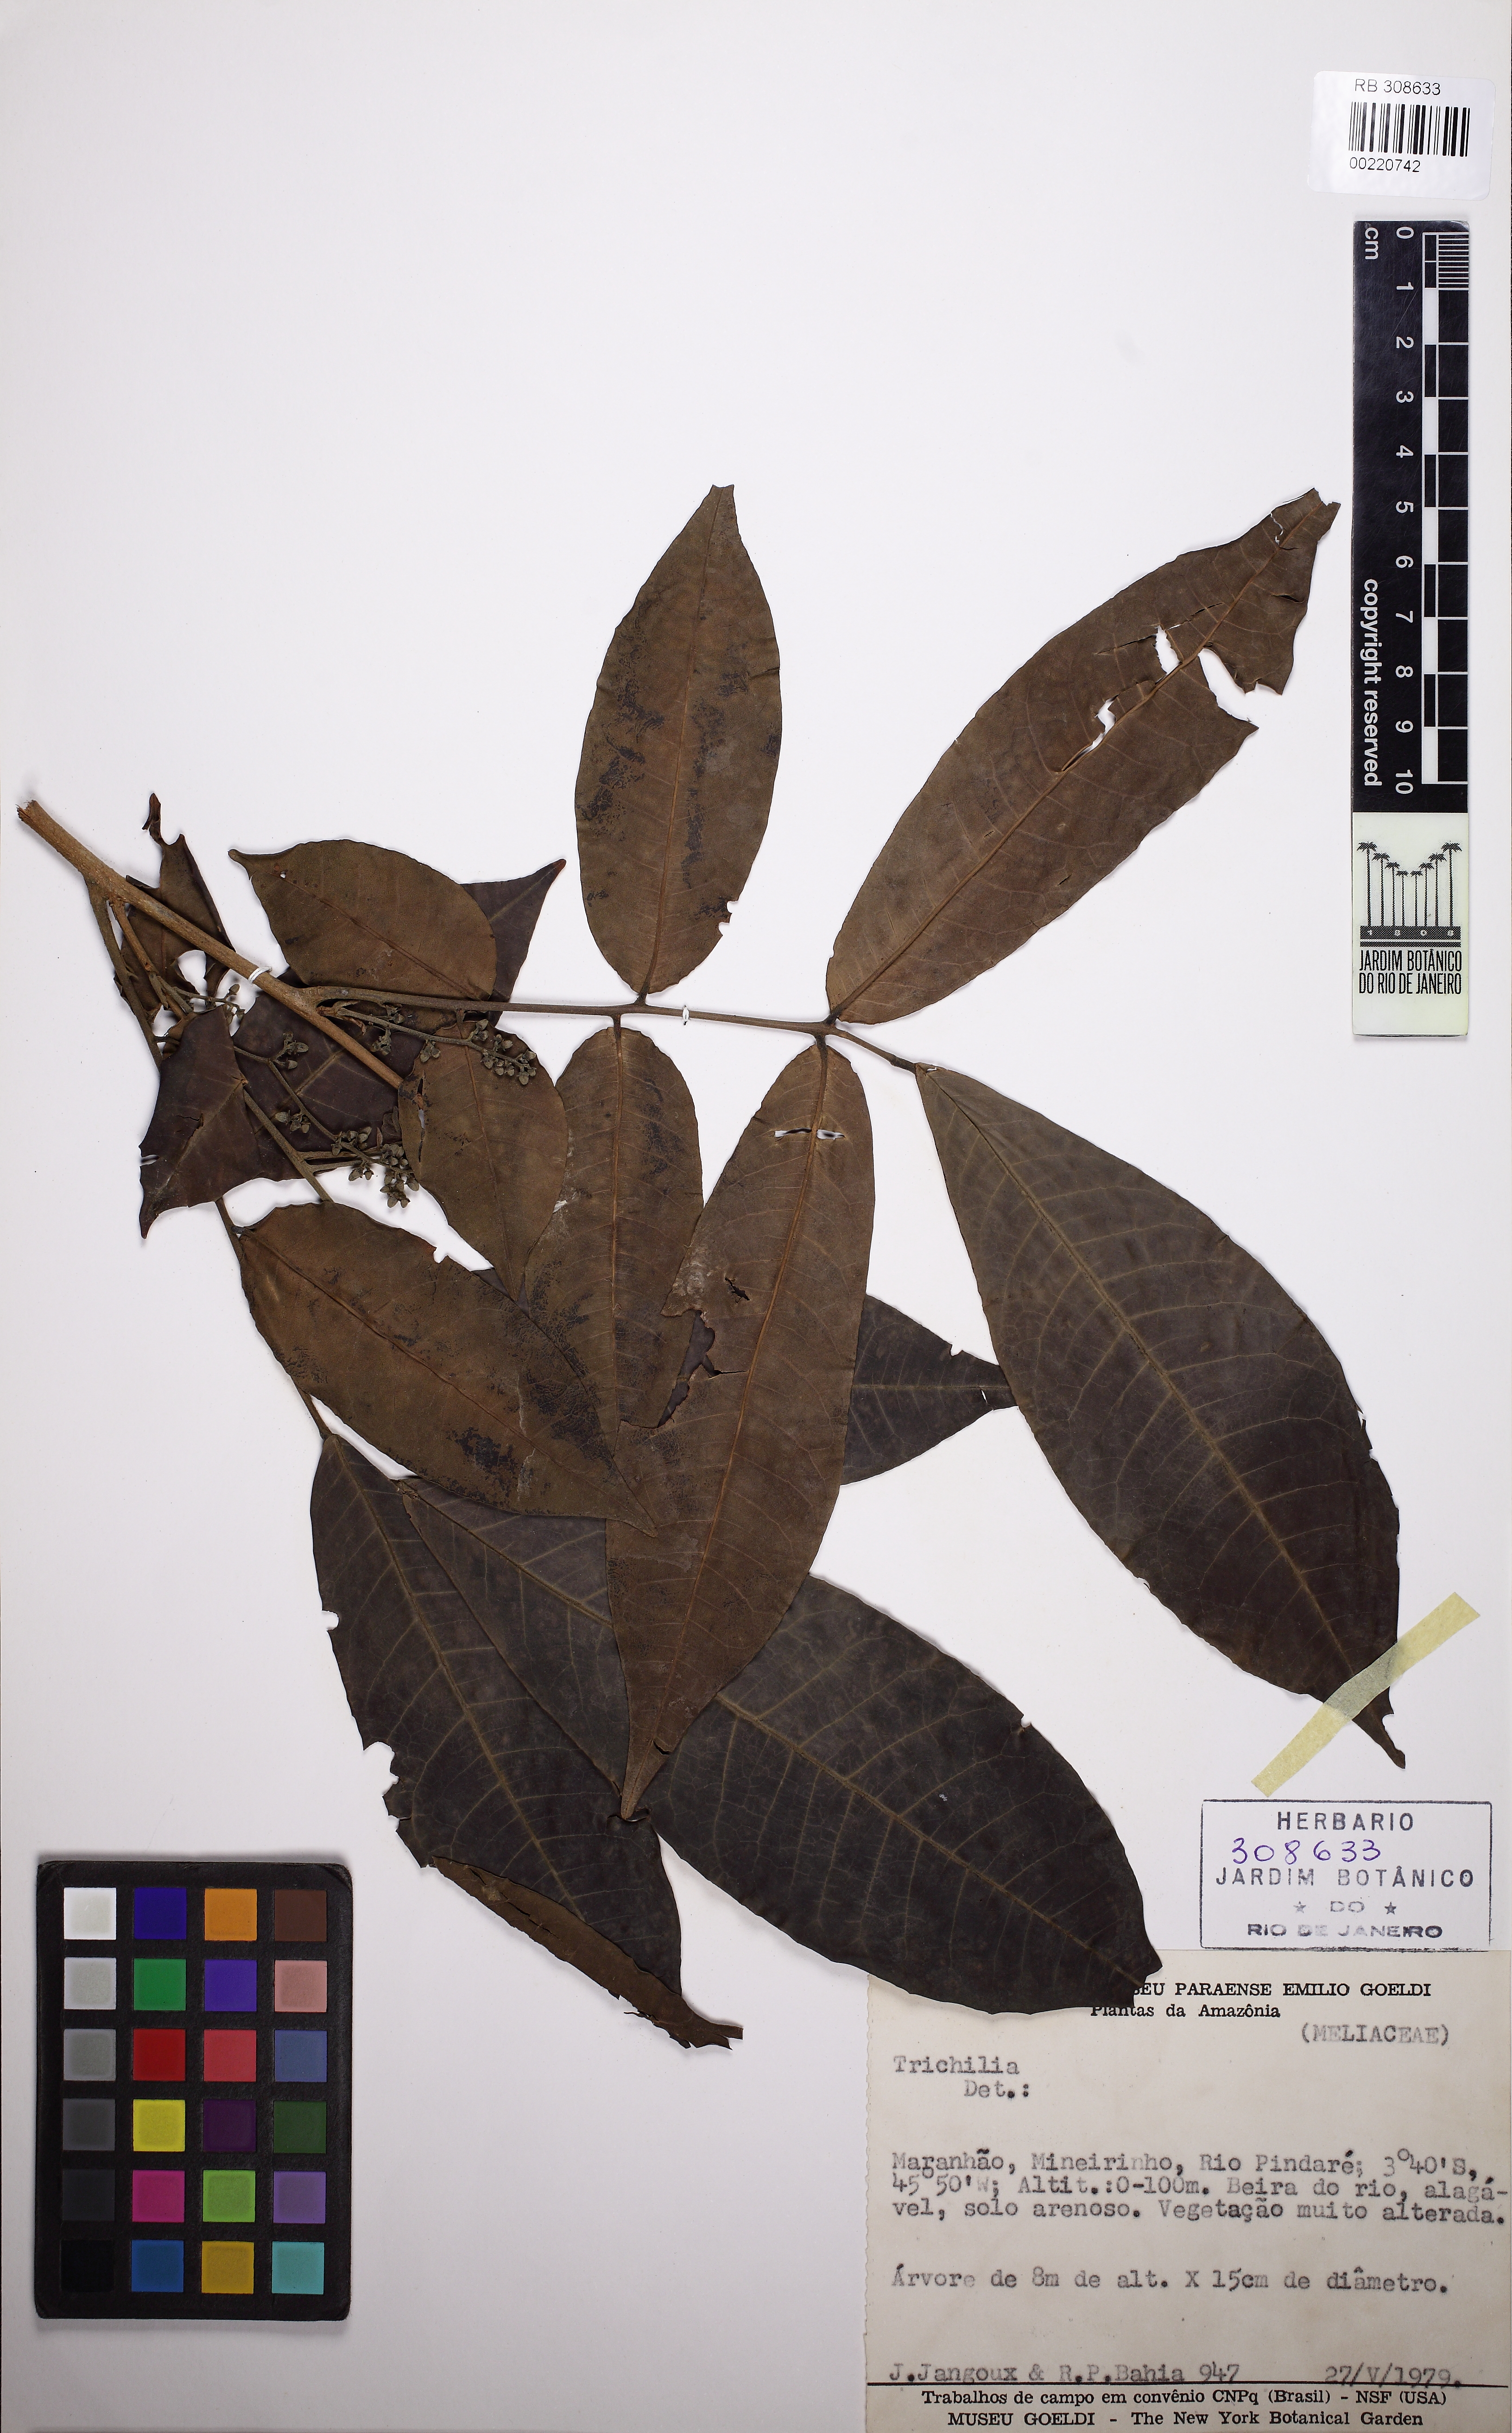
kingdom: Plantae
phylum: Tracheophyta
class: Magnoliopsida
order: Sapindales
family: Meliaceae
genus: Trichilia
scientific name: Trichilia
